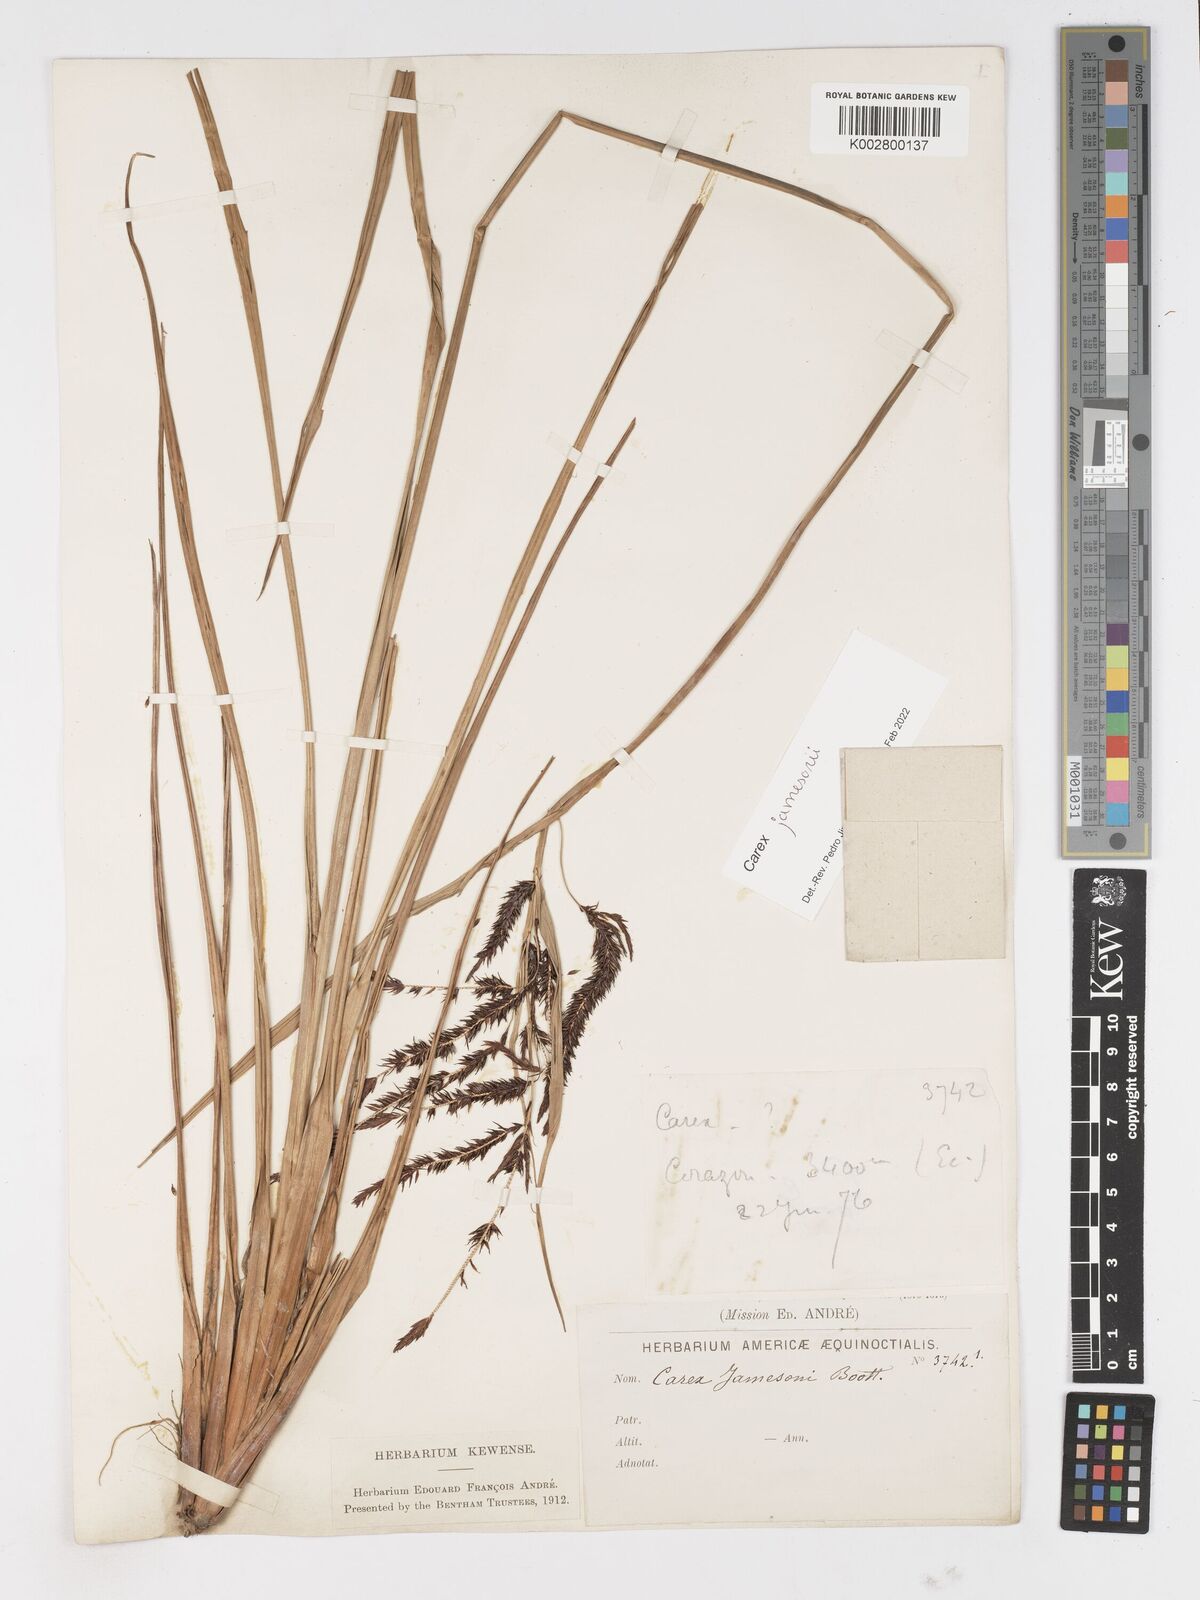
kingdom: Plantae
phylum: Tracheophyta
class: Liliopsida
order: Poales
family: Cyperaceae
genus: Carex
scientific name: Carex jamesonii
